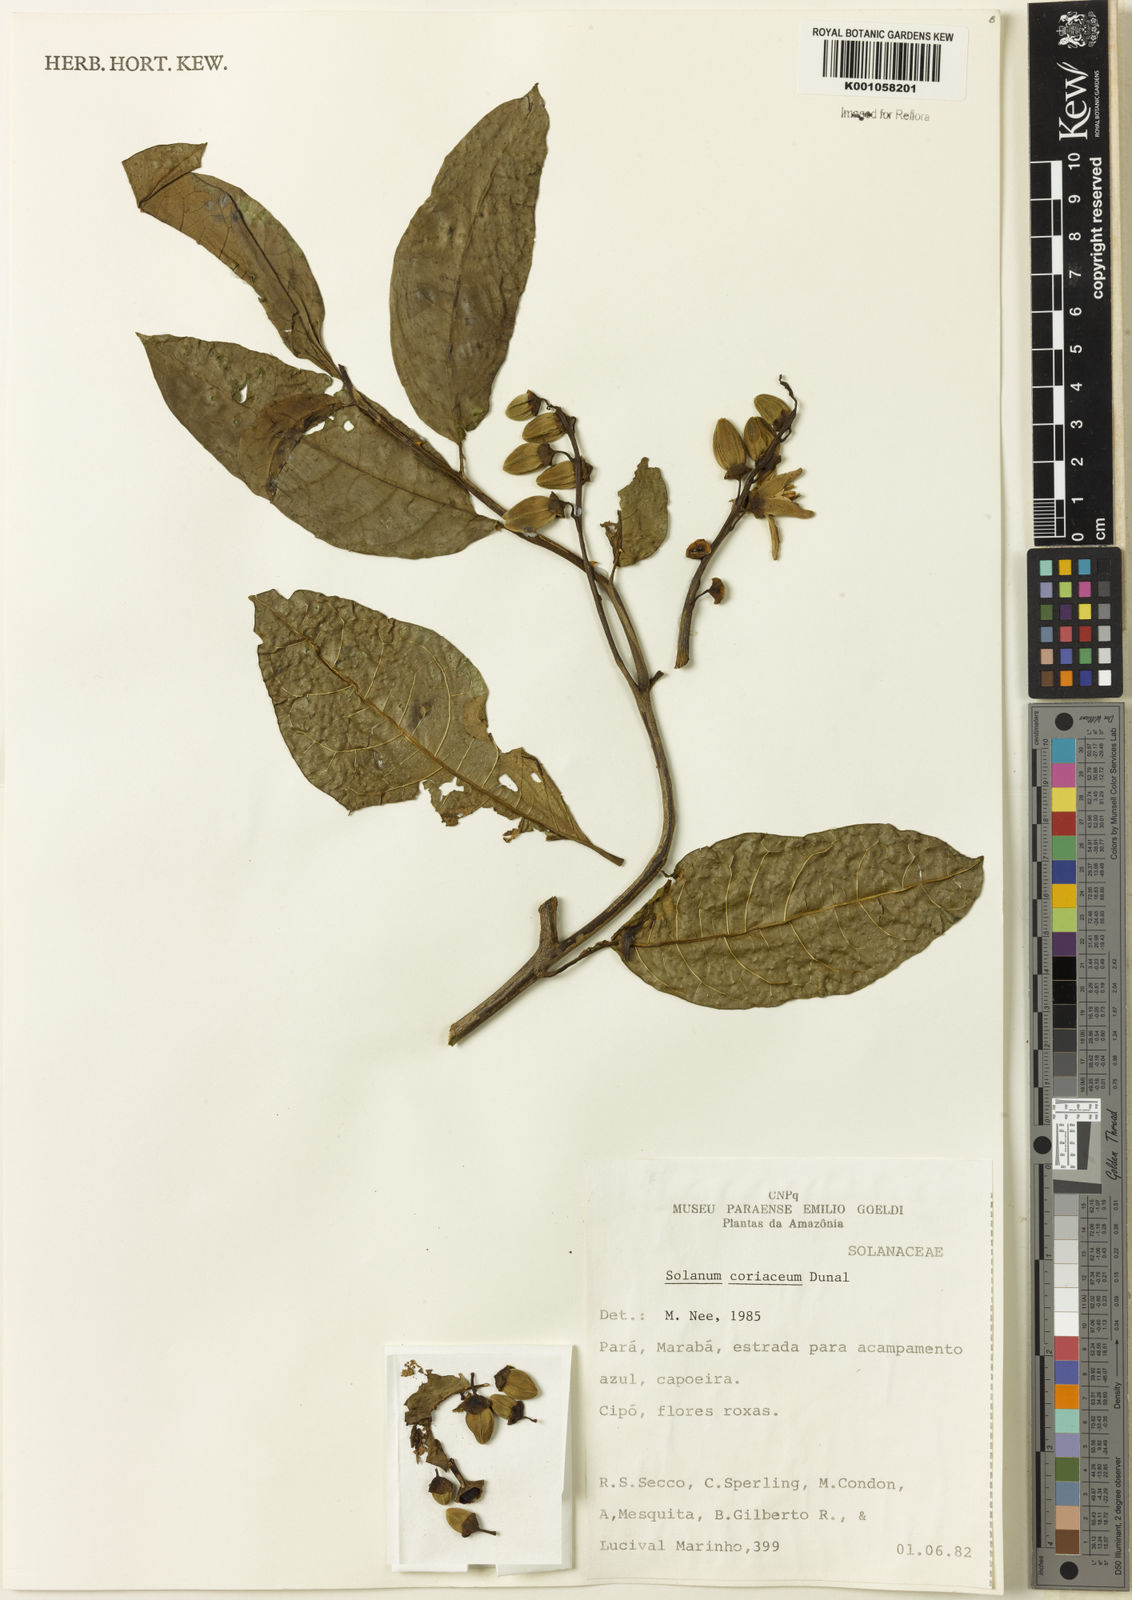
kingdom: Plantae
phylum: Tracheophyta
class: Magnoliopsida
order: Solanales
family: Solanaceae
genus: Solanum
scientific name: Solanum coriaceum
